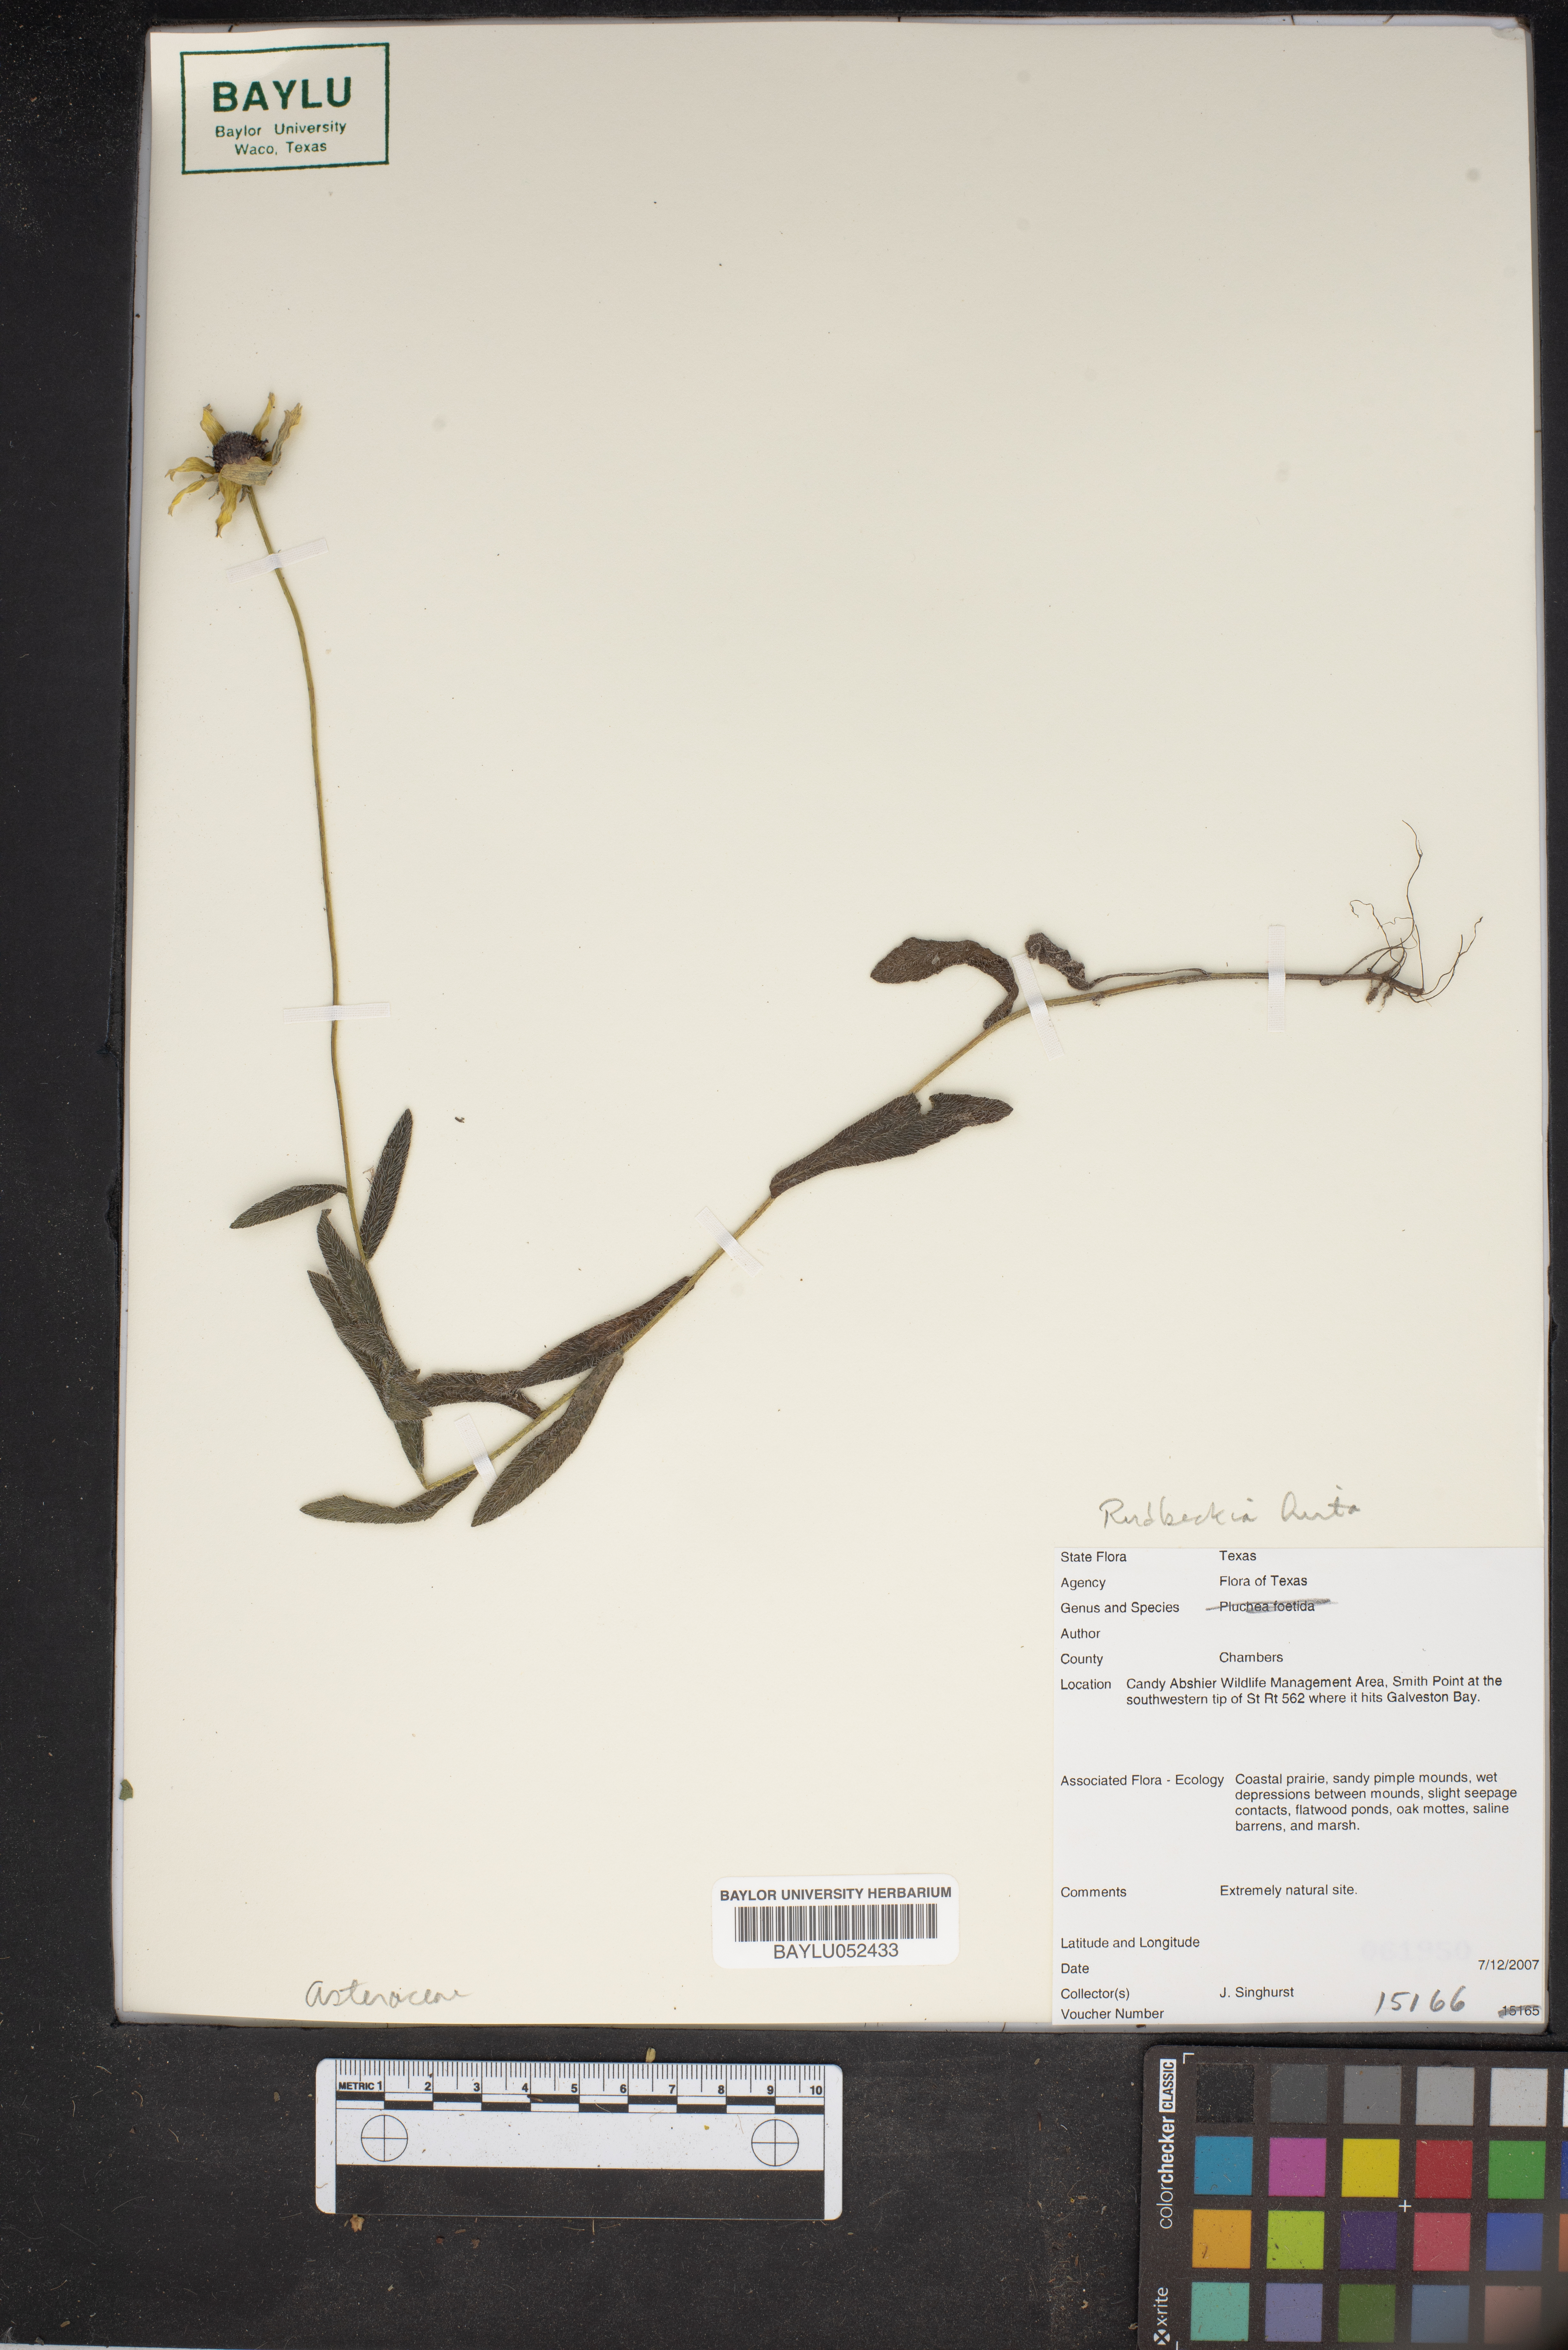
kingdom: Plantae
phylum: Tracheophyta
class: Magnoliopsida
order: Asterales
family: Asteraceae
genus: Rudbeckia
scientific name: Rudbeckia hirta
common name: Black-eyed-susan
